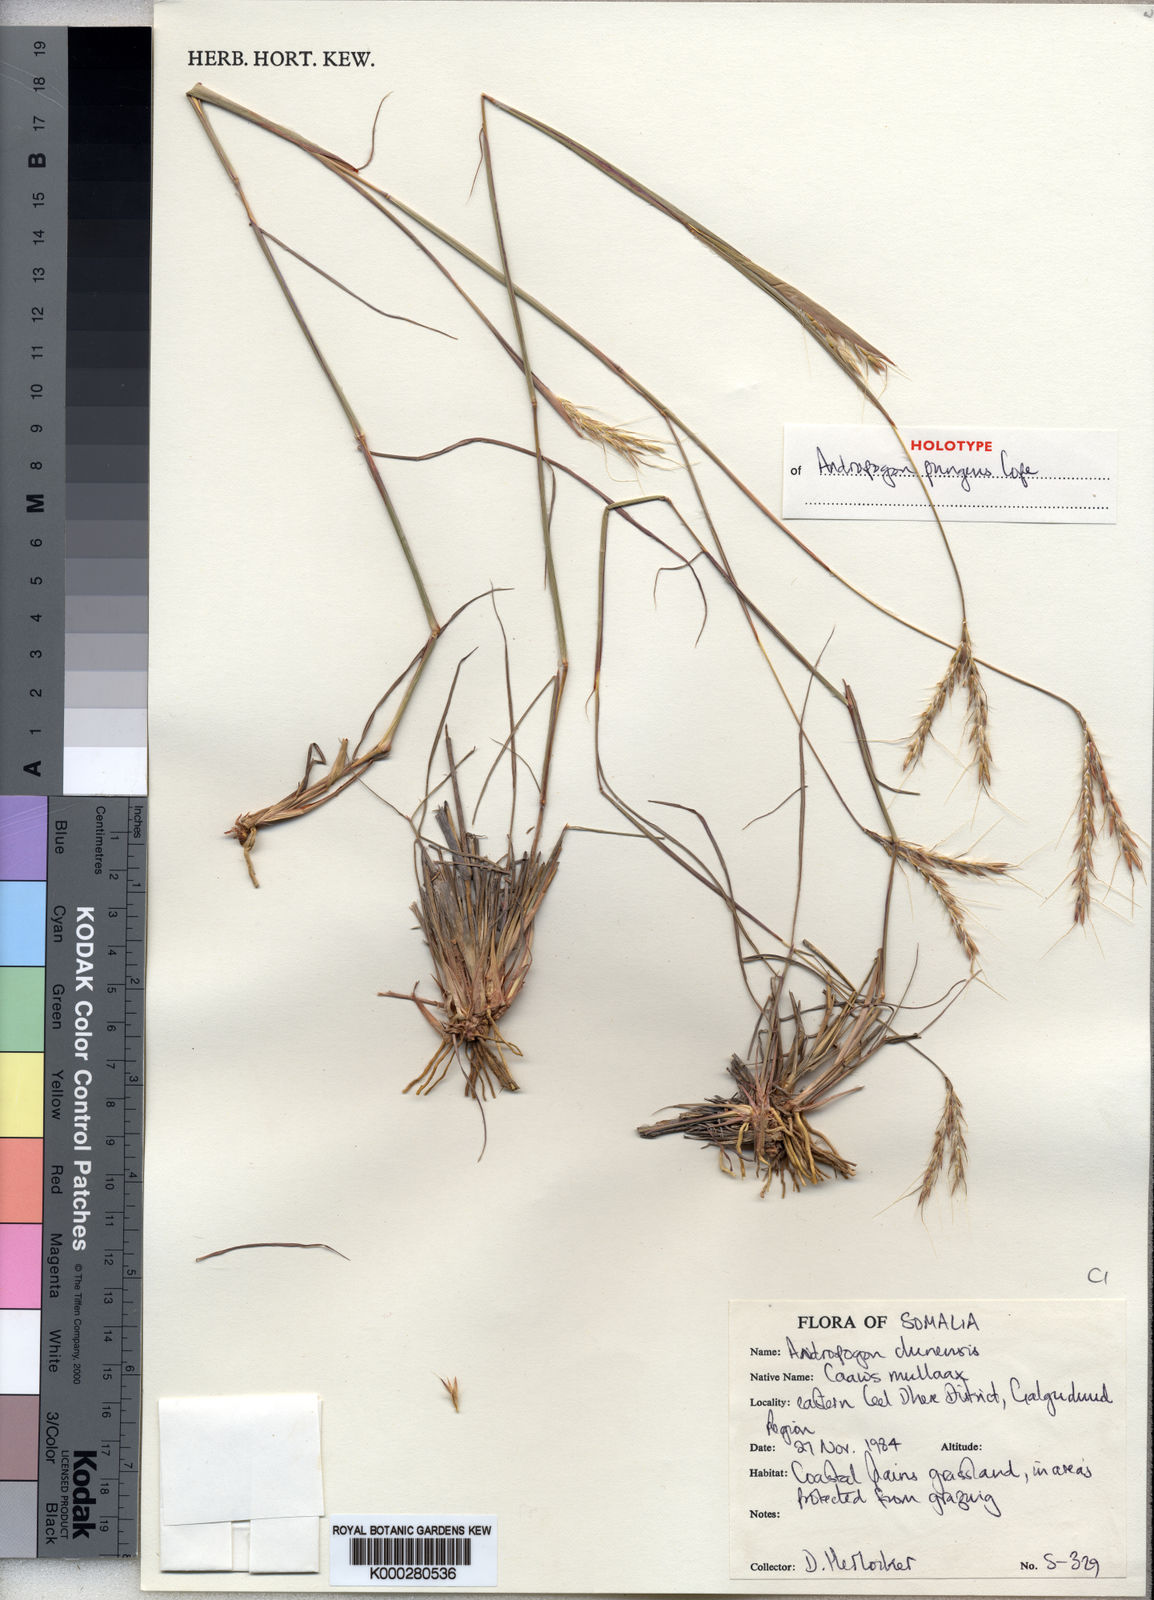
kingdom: Plantae
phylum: Tracheophyta
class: Liliopsida
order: Poales
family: Poaceae
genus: Andropogon
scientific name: Andropogon pungens
